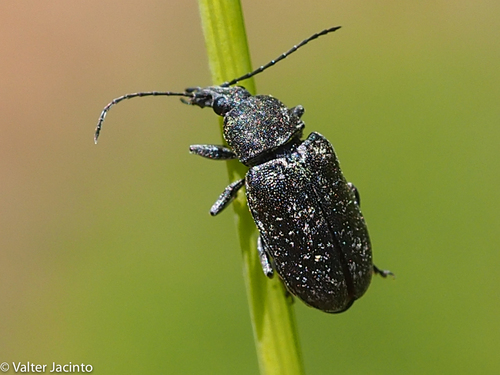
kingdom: Animalia
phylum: Arthropoda
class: Insecta
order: Coleoptera
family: Mycteridae
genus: Mycterus
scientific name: Mycterus curculioides
